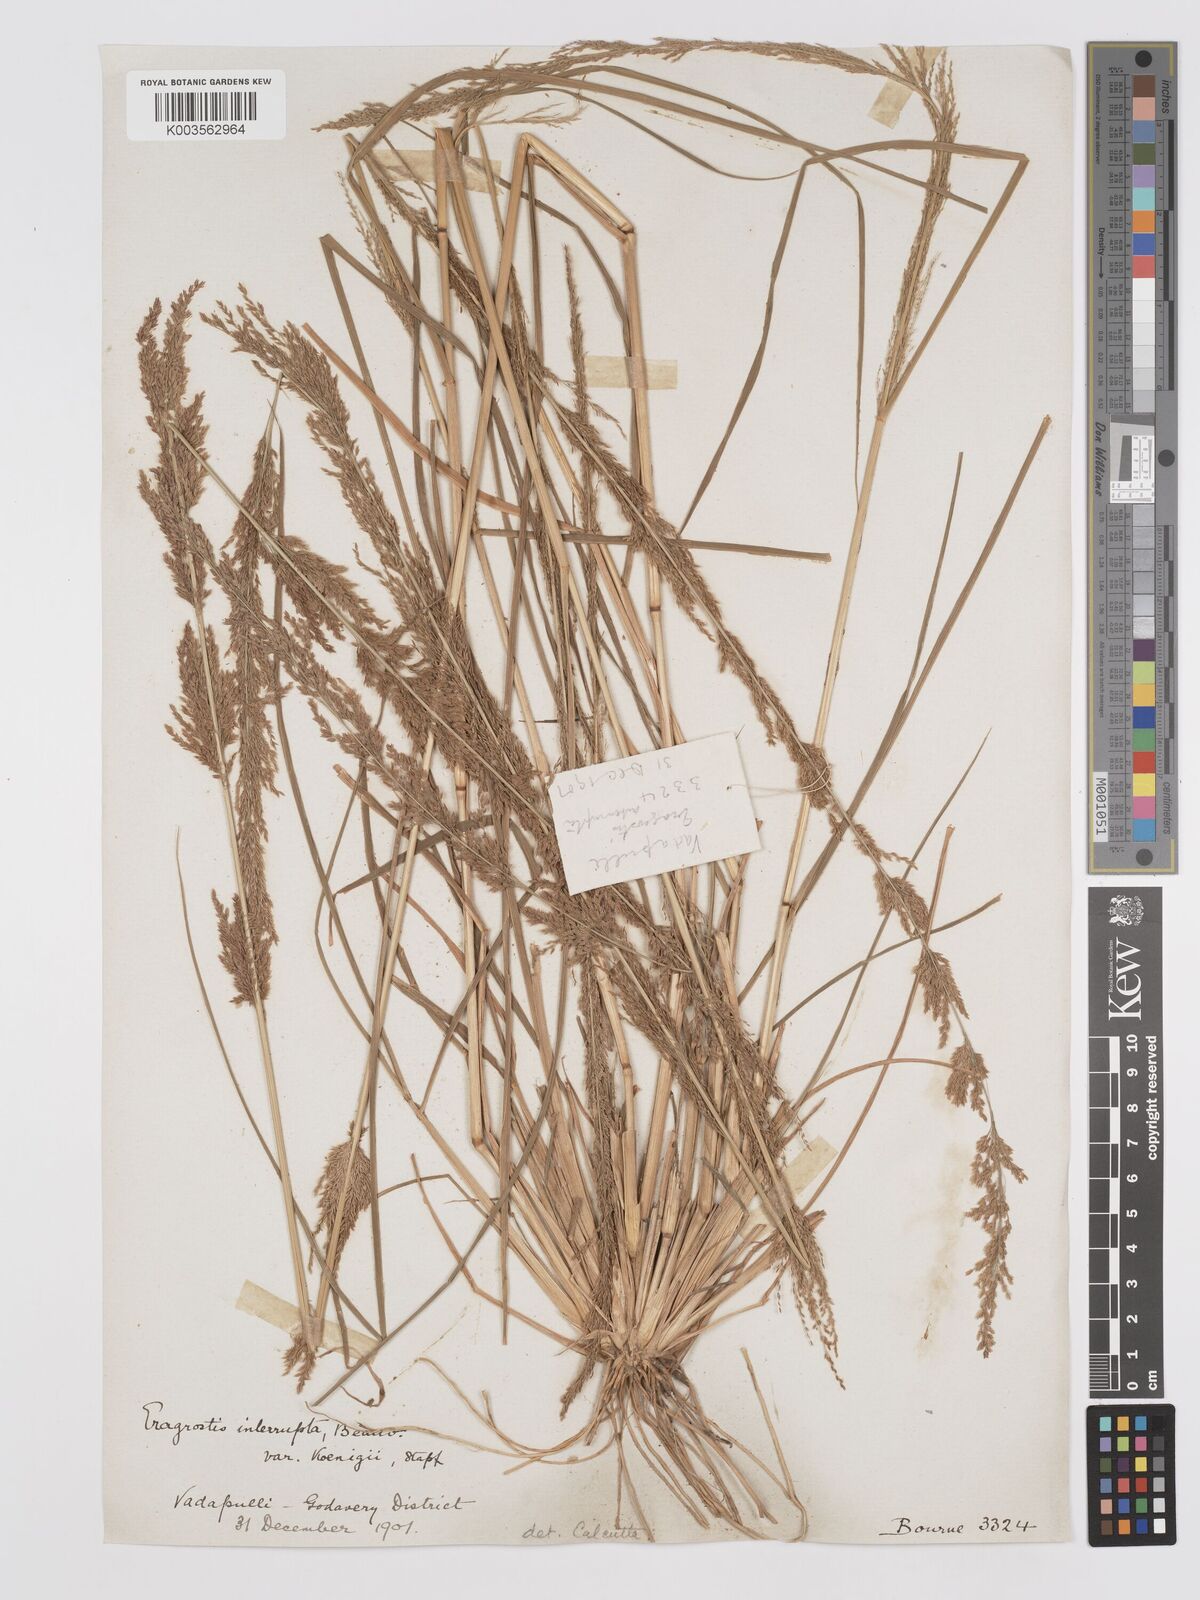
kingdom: Plantae
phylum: Tracheophyta
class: Liliopsida
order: Poales
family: Poaceae
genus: Eragrostis
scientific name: Eragrostis japonica
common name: Pond lovegrass
